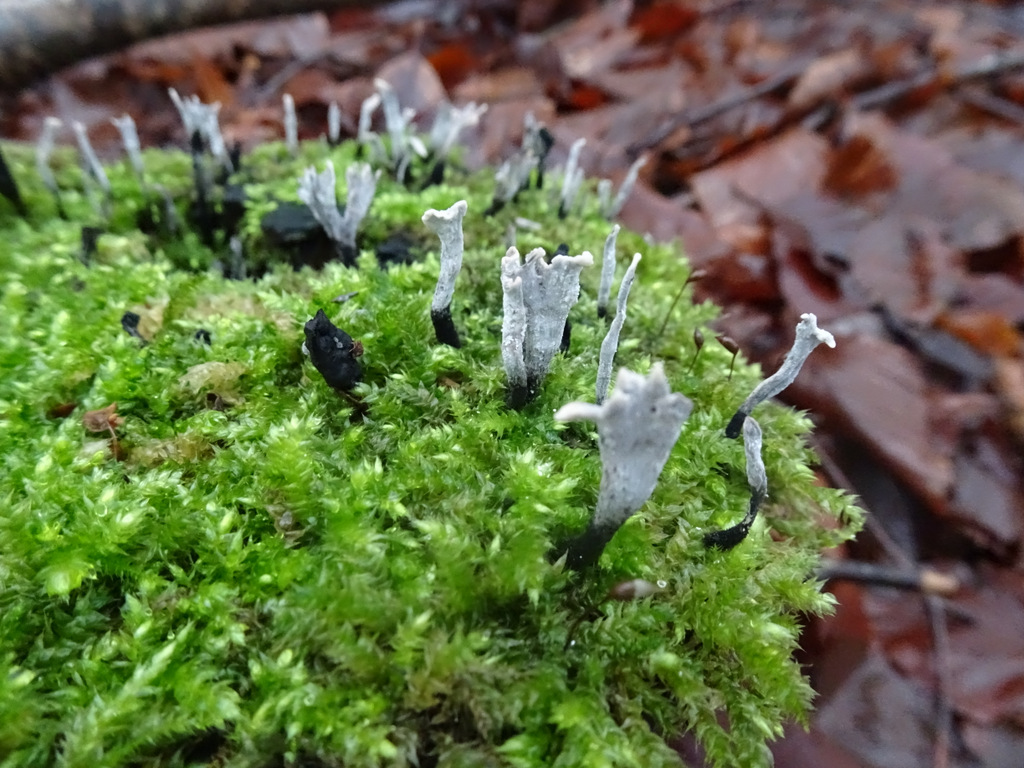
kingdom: Fungi
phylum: Ascomycota
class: Sordariomycetes
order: Xylariales
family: Xylariaceae
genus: Xylaria
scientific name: Xylaria hypoxylon
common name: grenet stødsvamp
